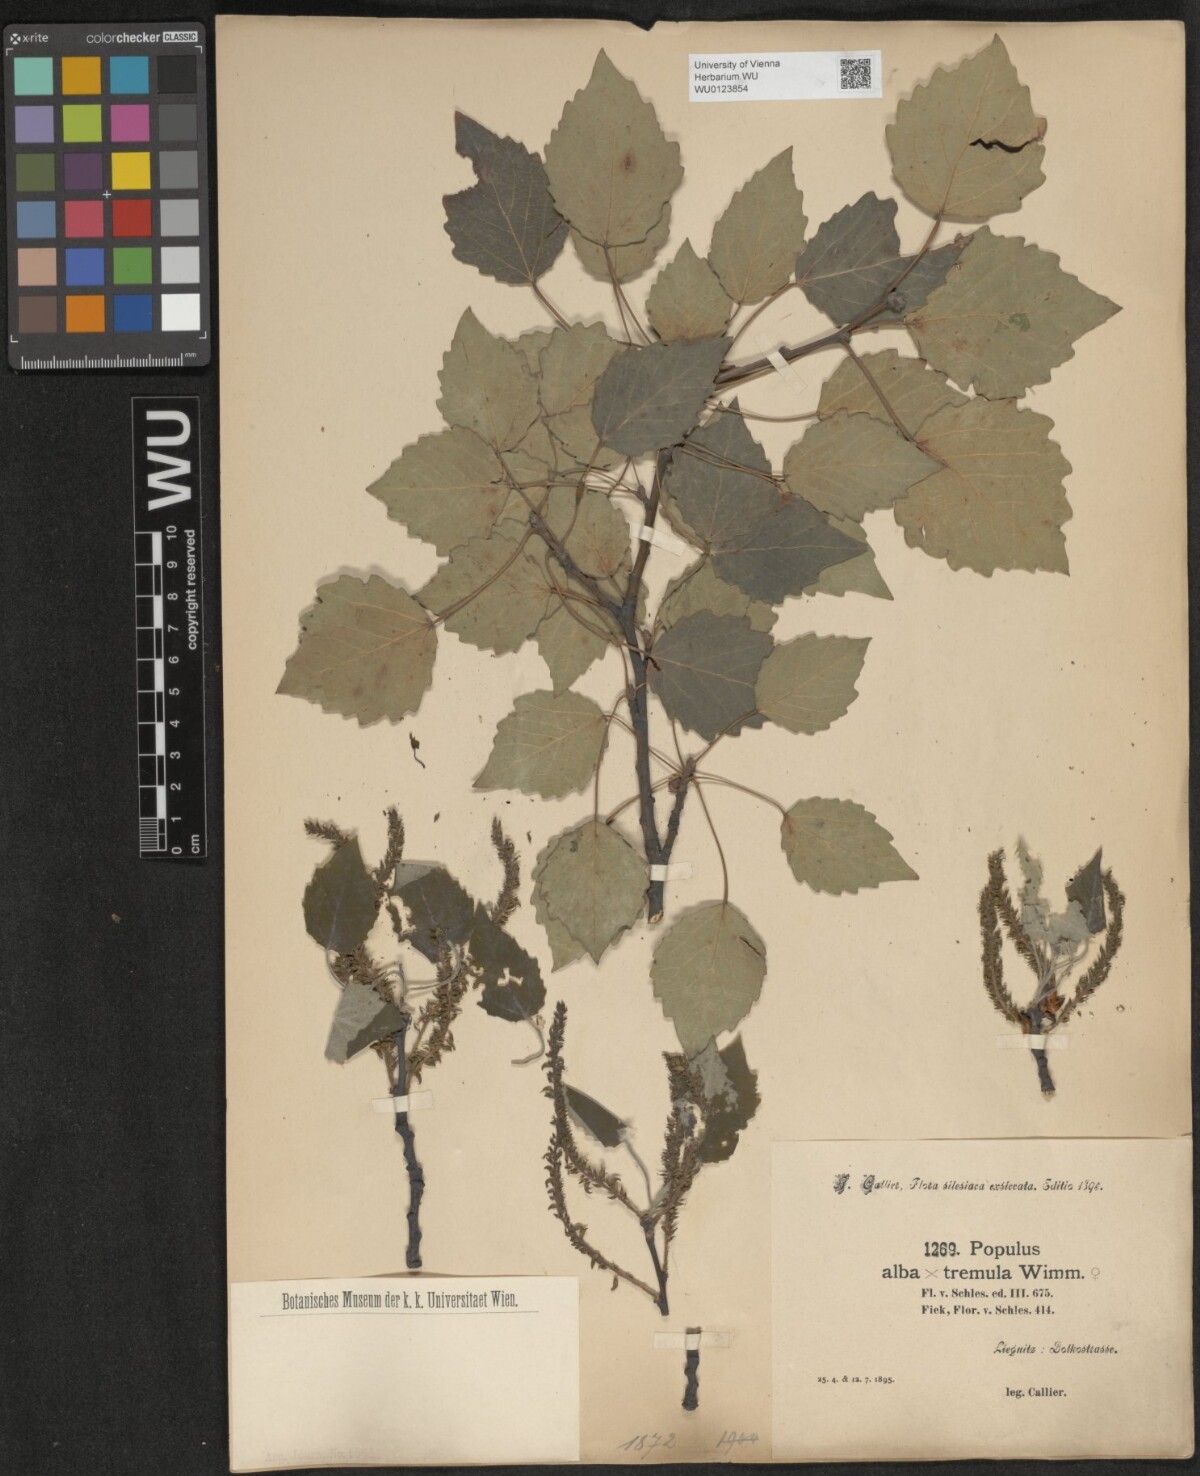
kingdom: Plantae
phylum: Tracheophyta
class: Magnoliopsida
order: Malpighiales
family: Salicaceae
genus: Populus
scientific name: Populus canescens
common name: Gray poplar
